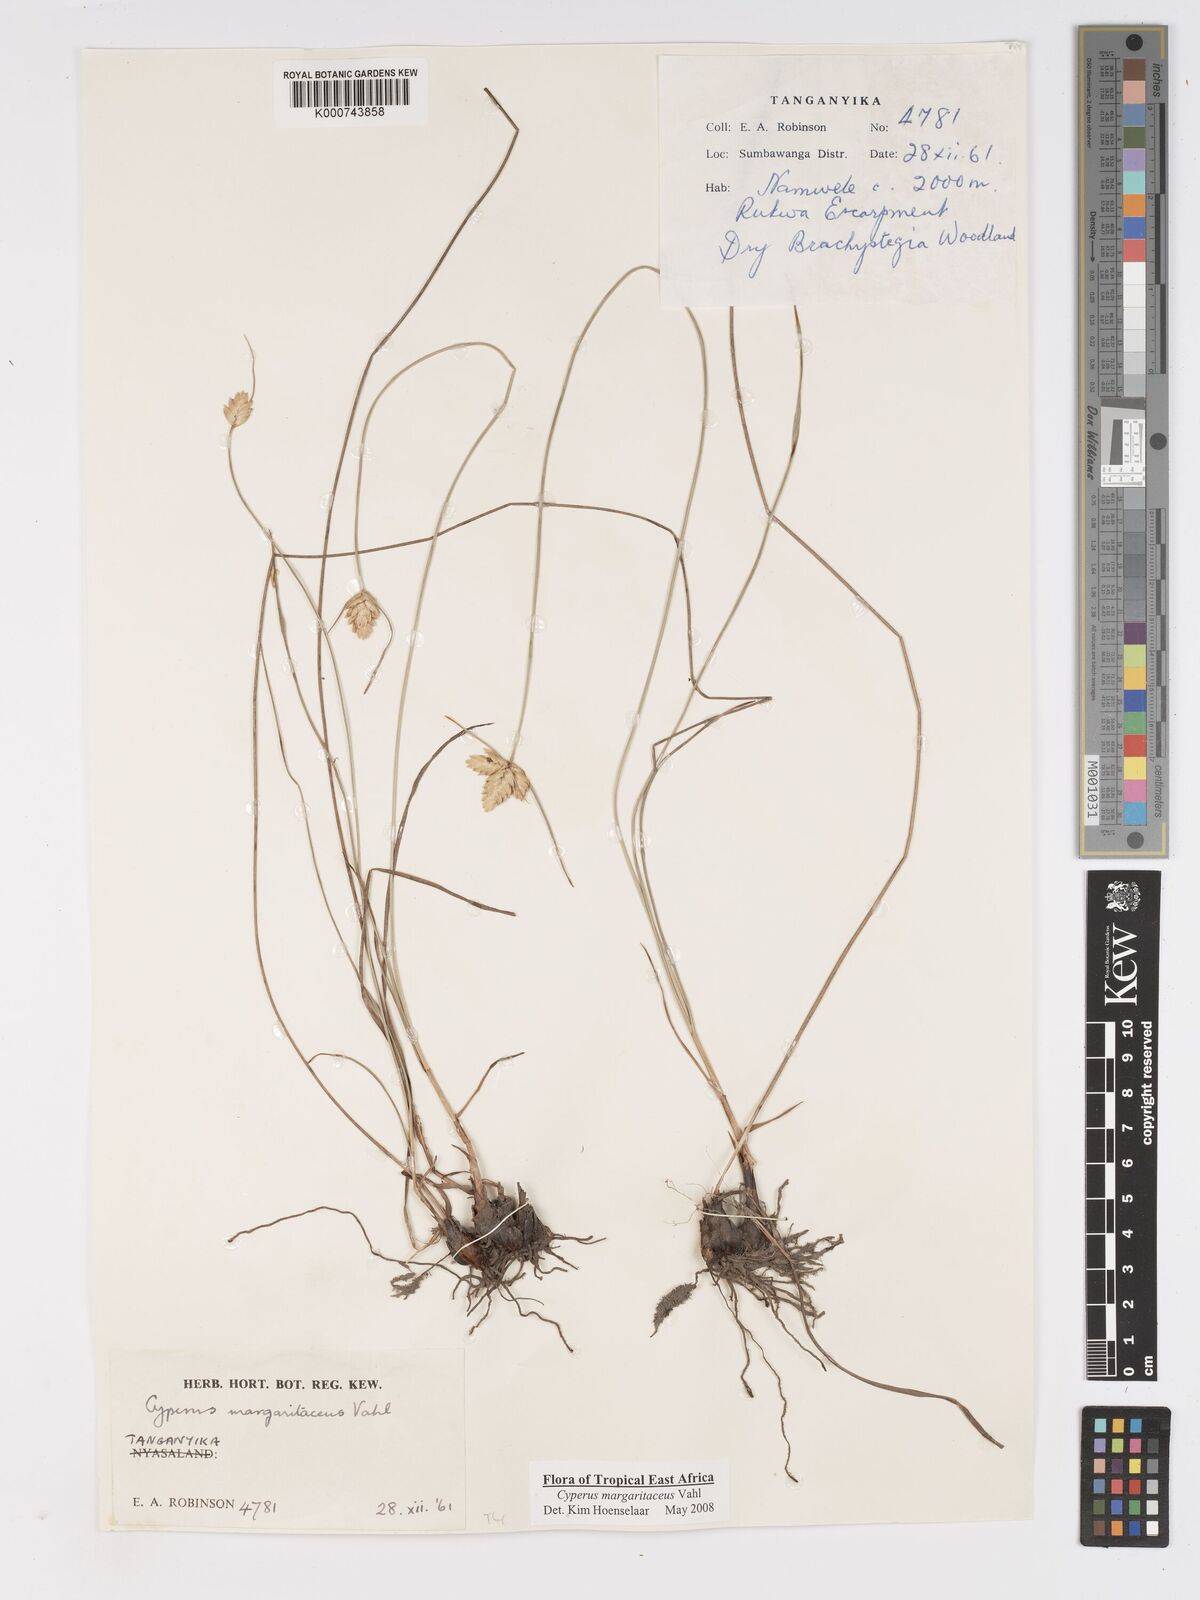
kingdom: Plantae
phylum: Tracheophyta
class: Liliopsida
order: Poales
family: Cyperaceae
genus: Cyperus
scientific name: Cyperus margaritaceus
